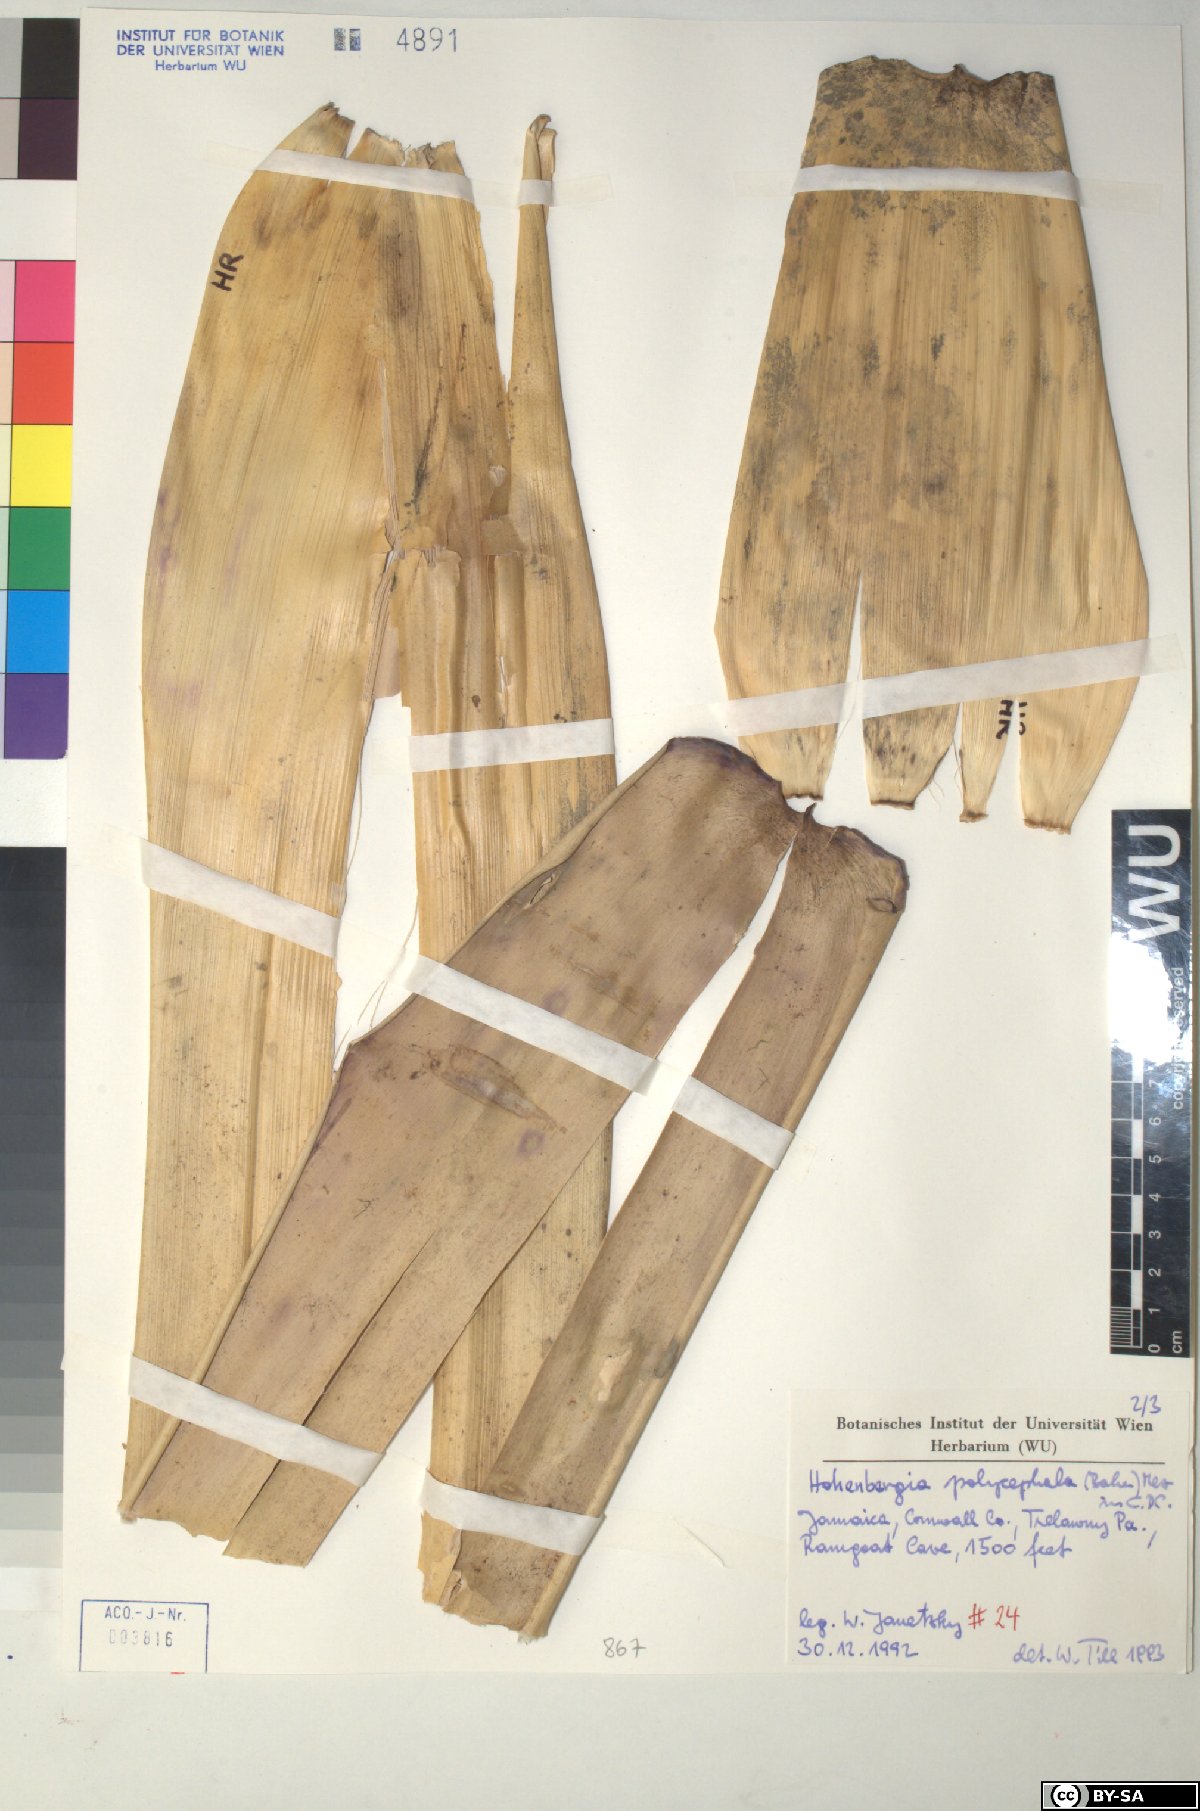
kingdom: Plantae
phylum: Tracheophyta
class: Liliopsida
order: Poales
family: Bromeliaceae
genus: Wittmackia
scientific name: Wittmackia polycephala
